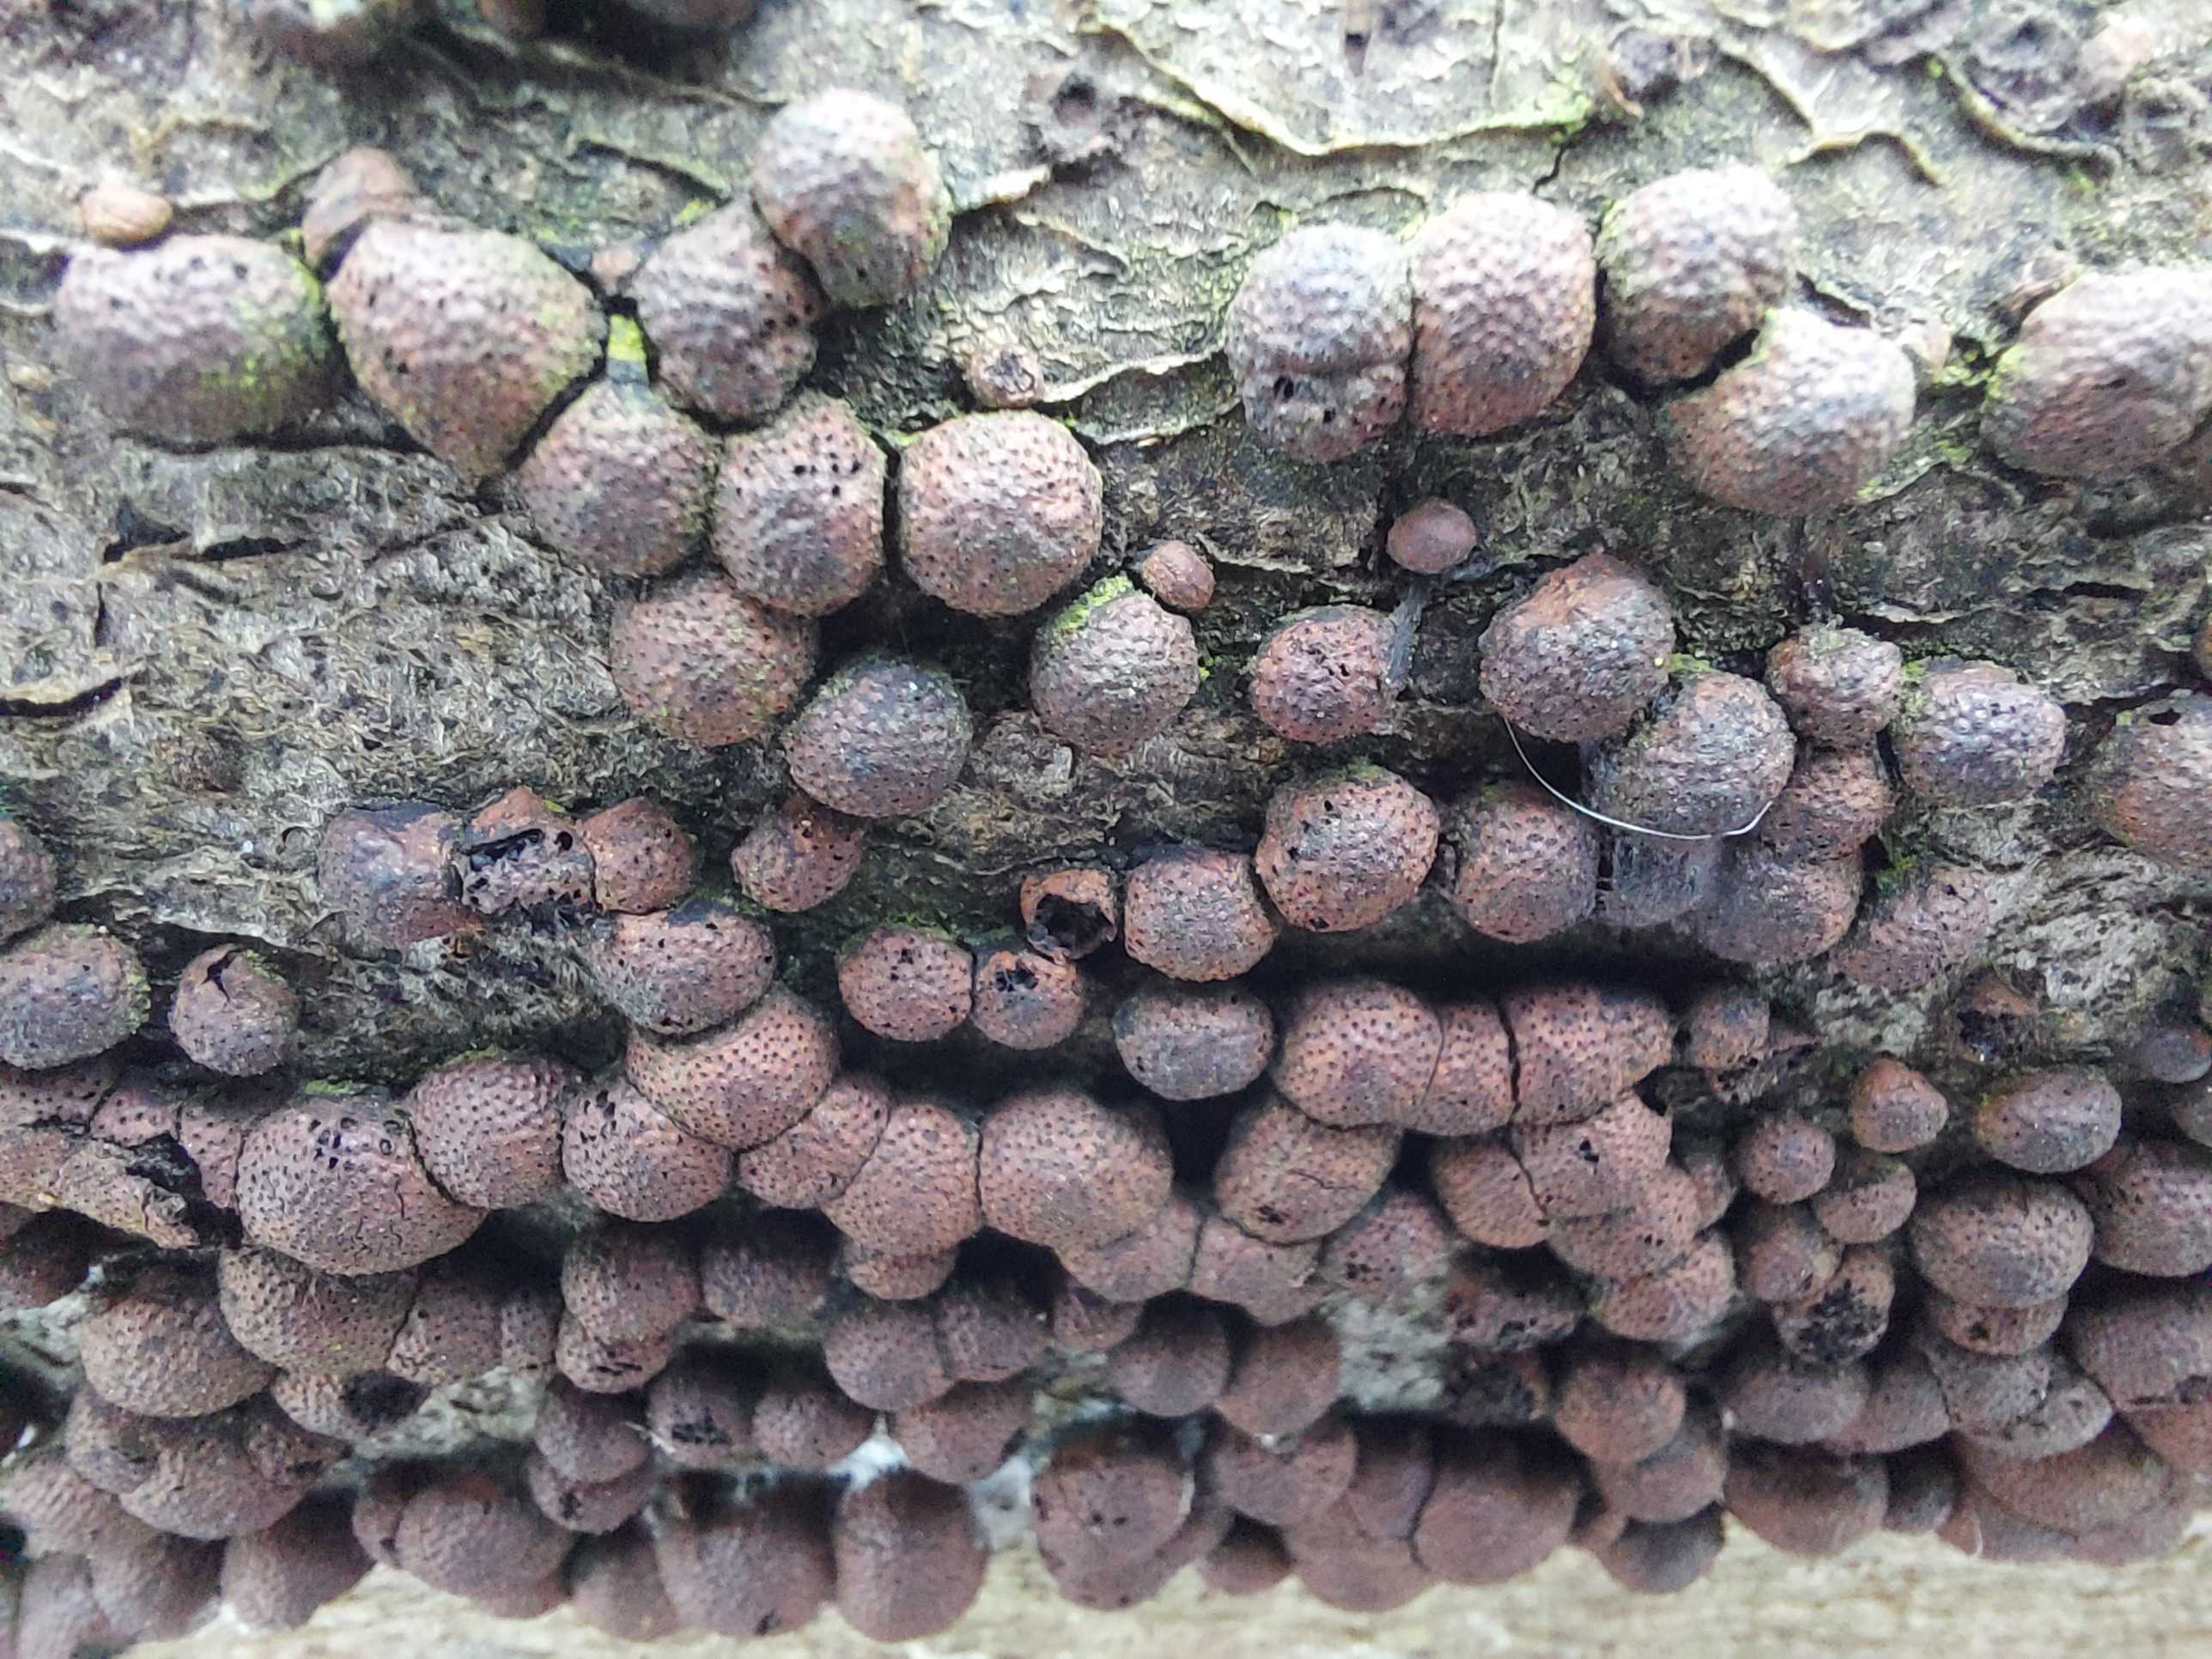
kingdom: Fungi
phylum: Ascomycota
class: Sordariomycetes
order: Xylariales
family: Hypoxylaceae
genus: Hypoxylon
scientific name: Hypoxylon fragiforme
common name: kuljordbær
